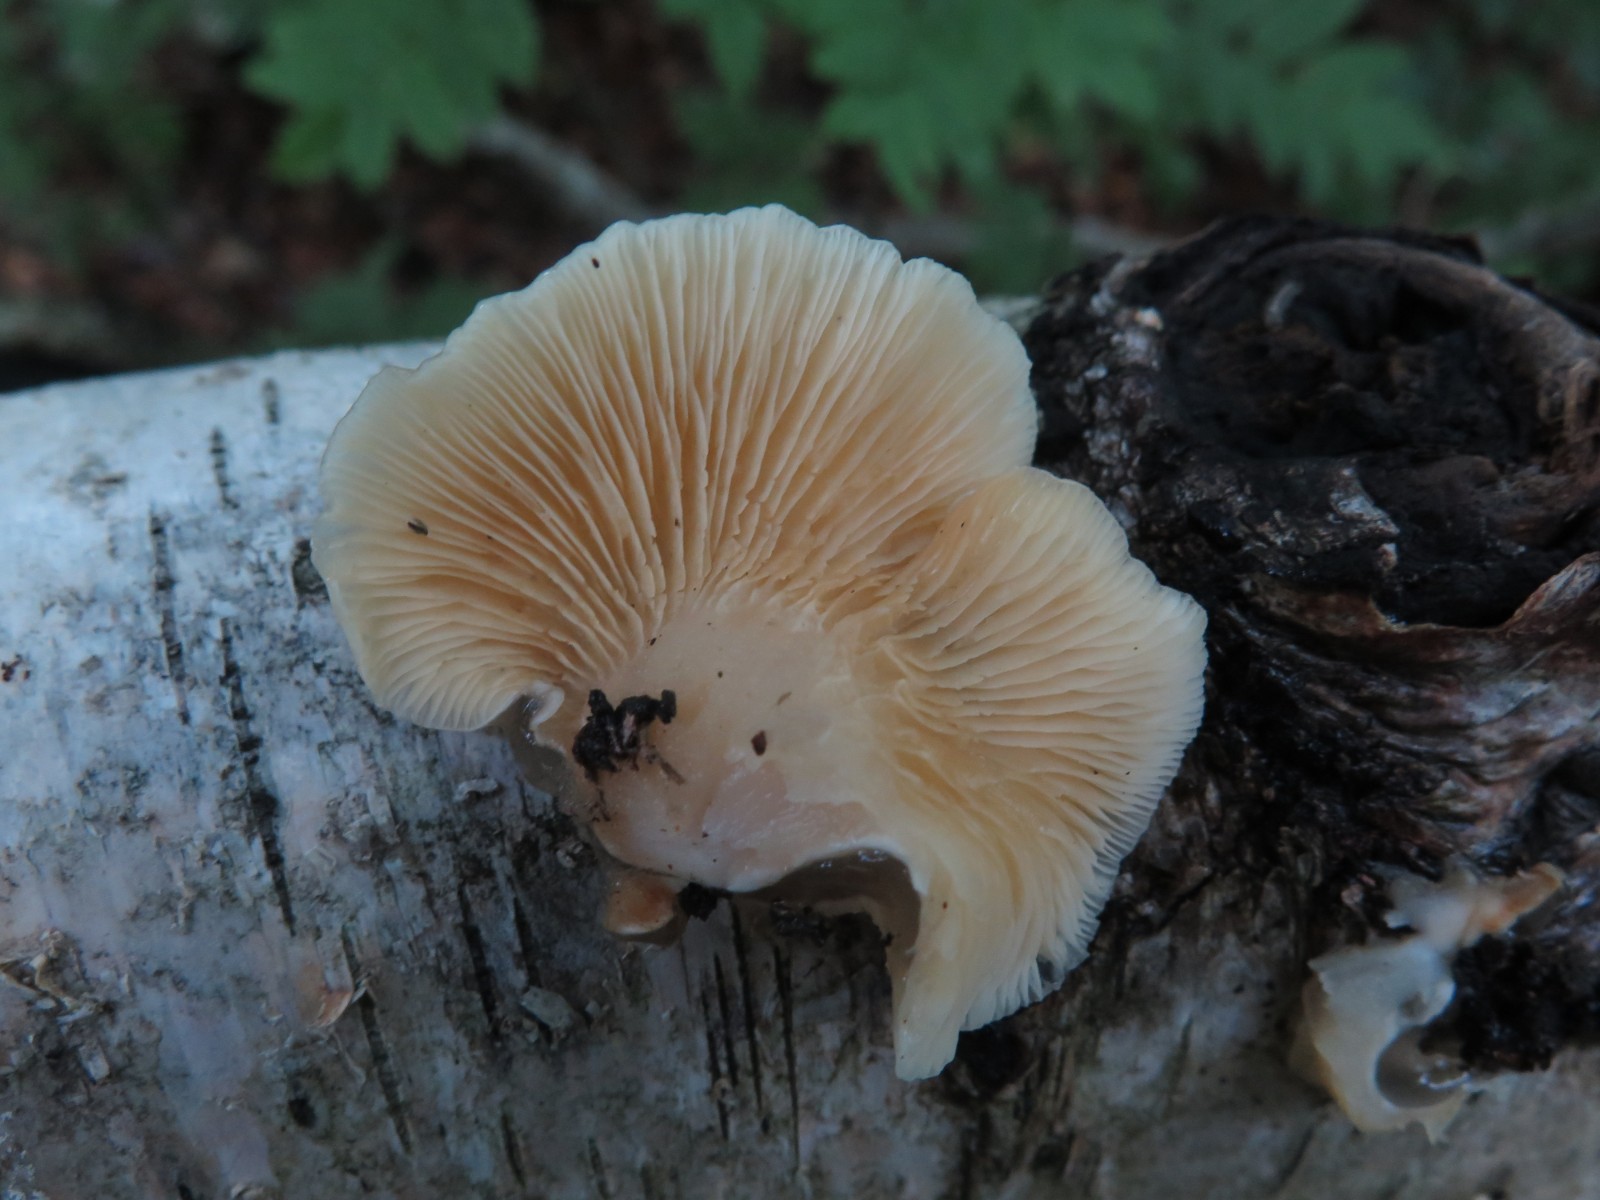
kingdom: Fungi
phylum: Basidiomycota
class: Agaricomycetes
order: Agaricales
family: Crepidotaceae
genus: Crepidotus
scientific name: Crepidotus mollis
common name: blød muslingesvamp
